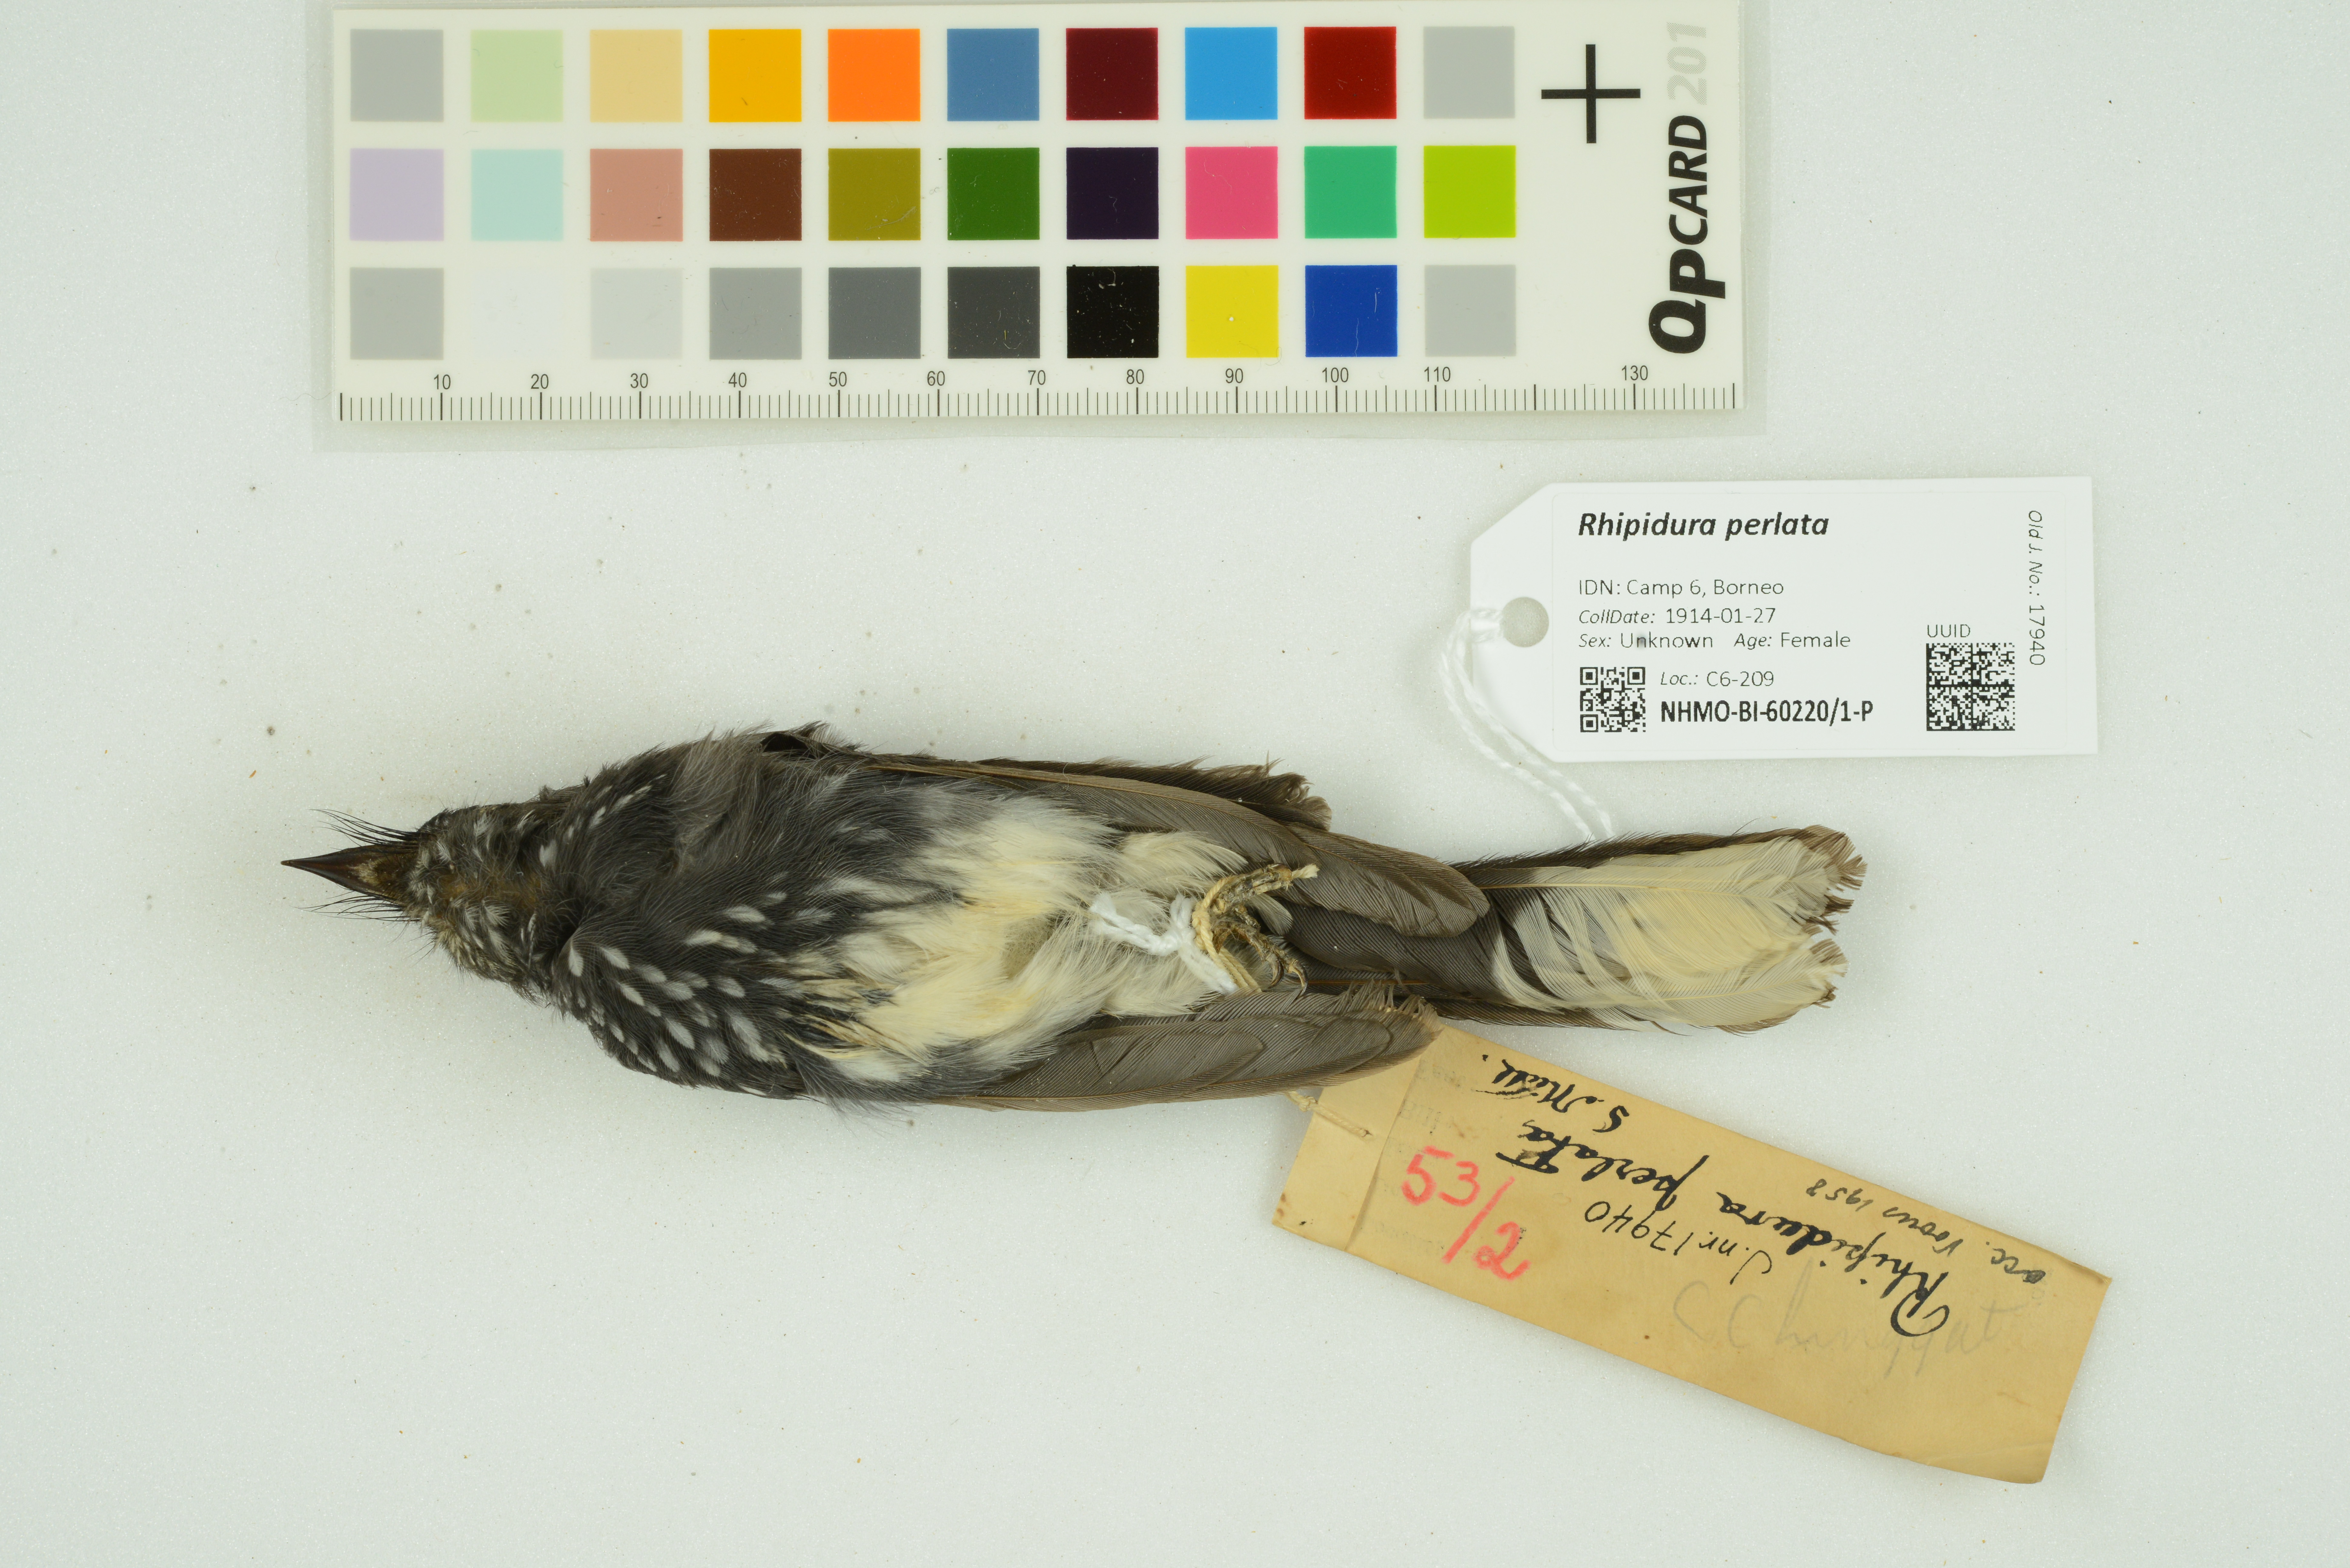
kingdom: Animalia
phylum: Chordata
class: Aves
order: Passeriformes
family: Rhipiduridae
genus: Rhipidura
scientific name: Rhipidura perlata
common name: Spotted fantail
